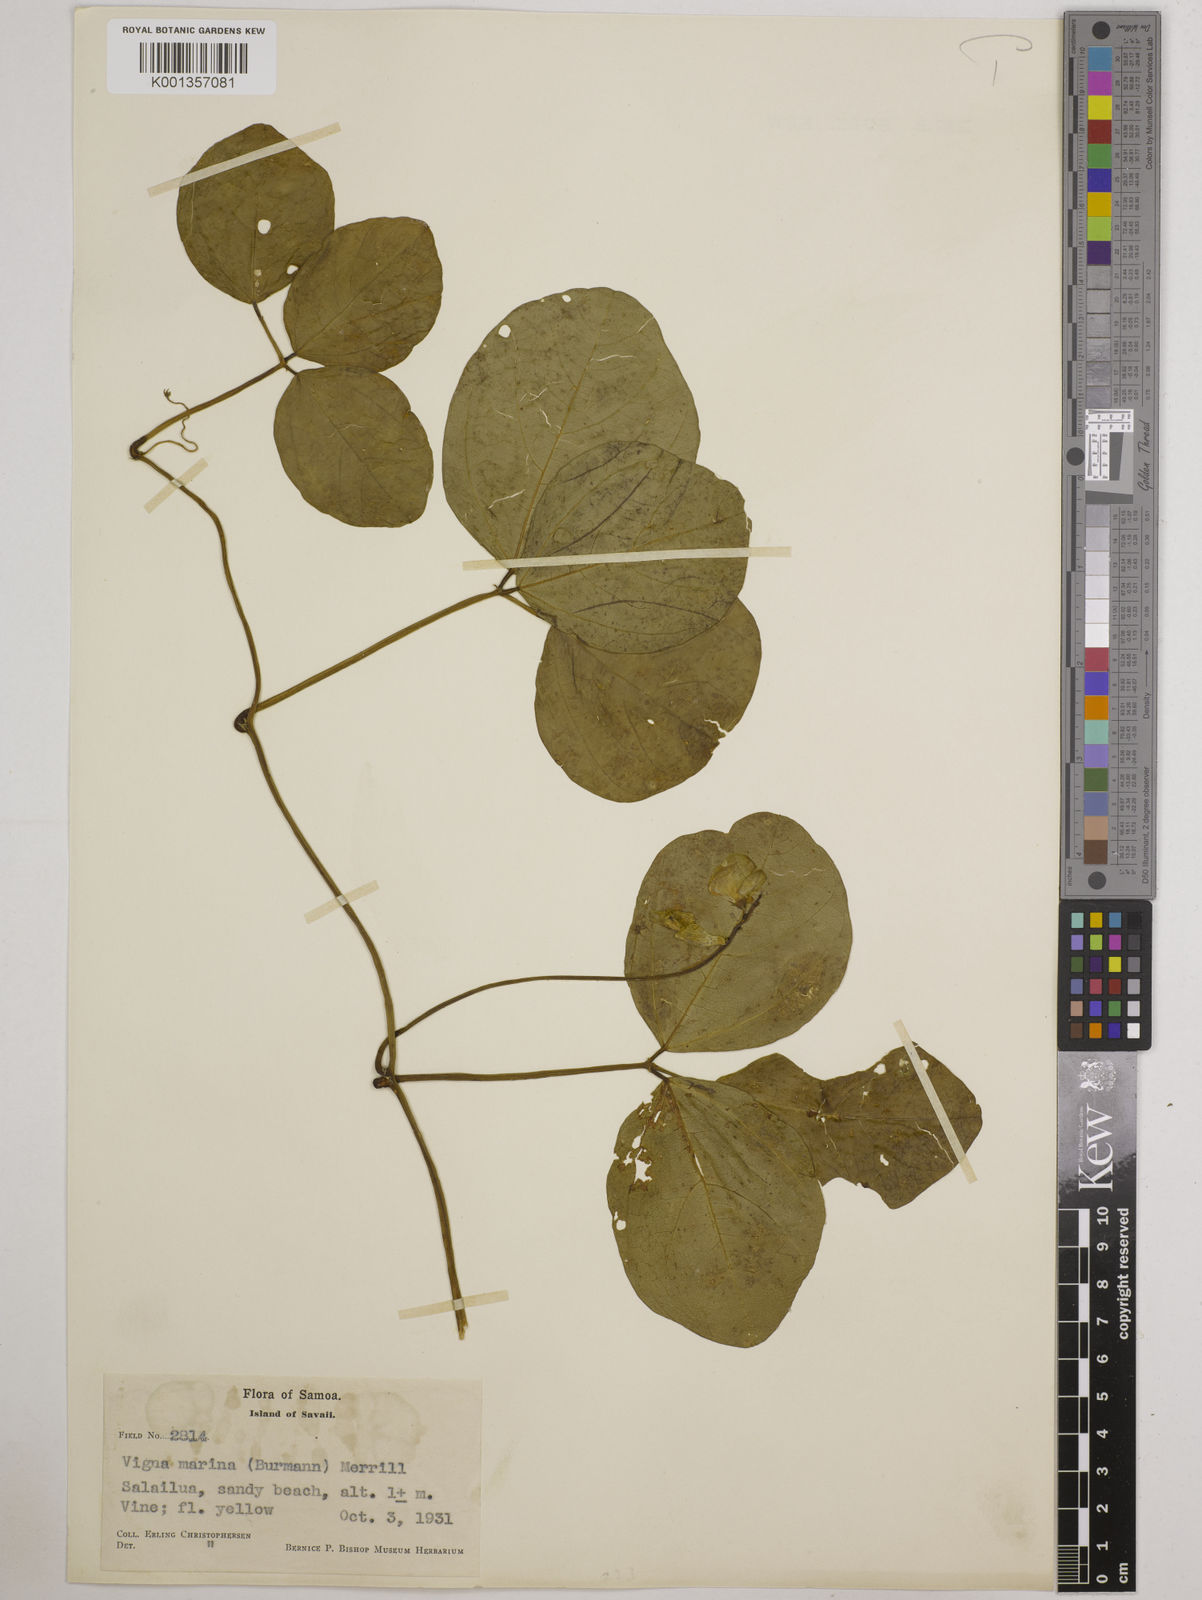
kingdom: Plantae
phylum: Tracheophyta
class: Magnoliopsida
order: Fabales
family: Fabaceae
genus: Vigna
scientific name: Vigna marina
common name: Dune-bean
